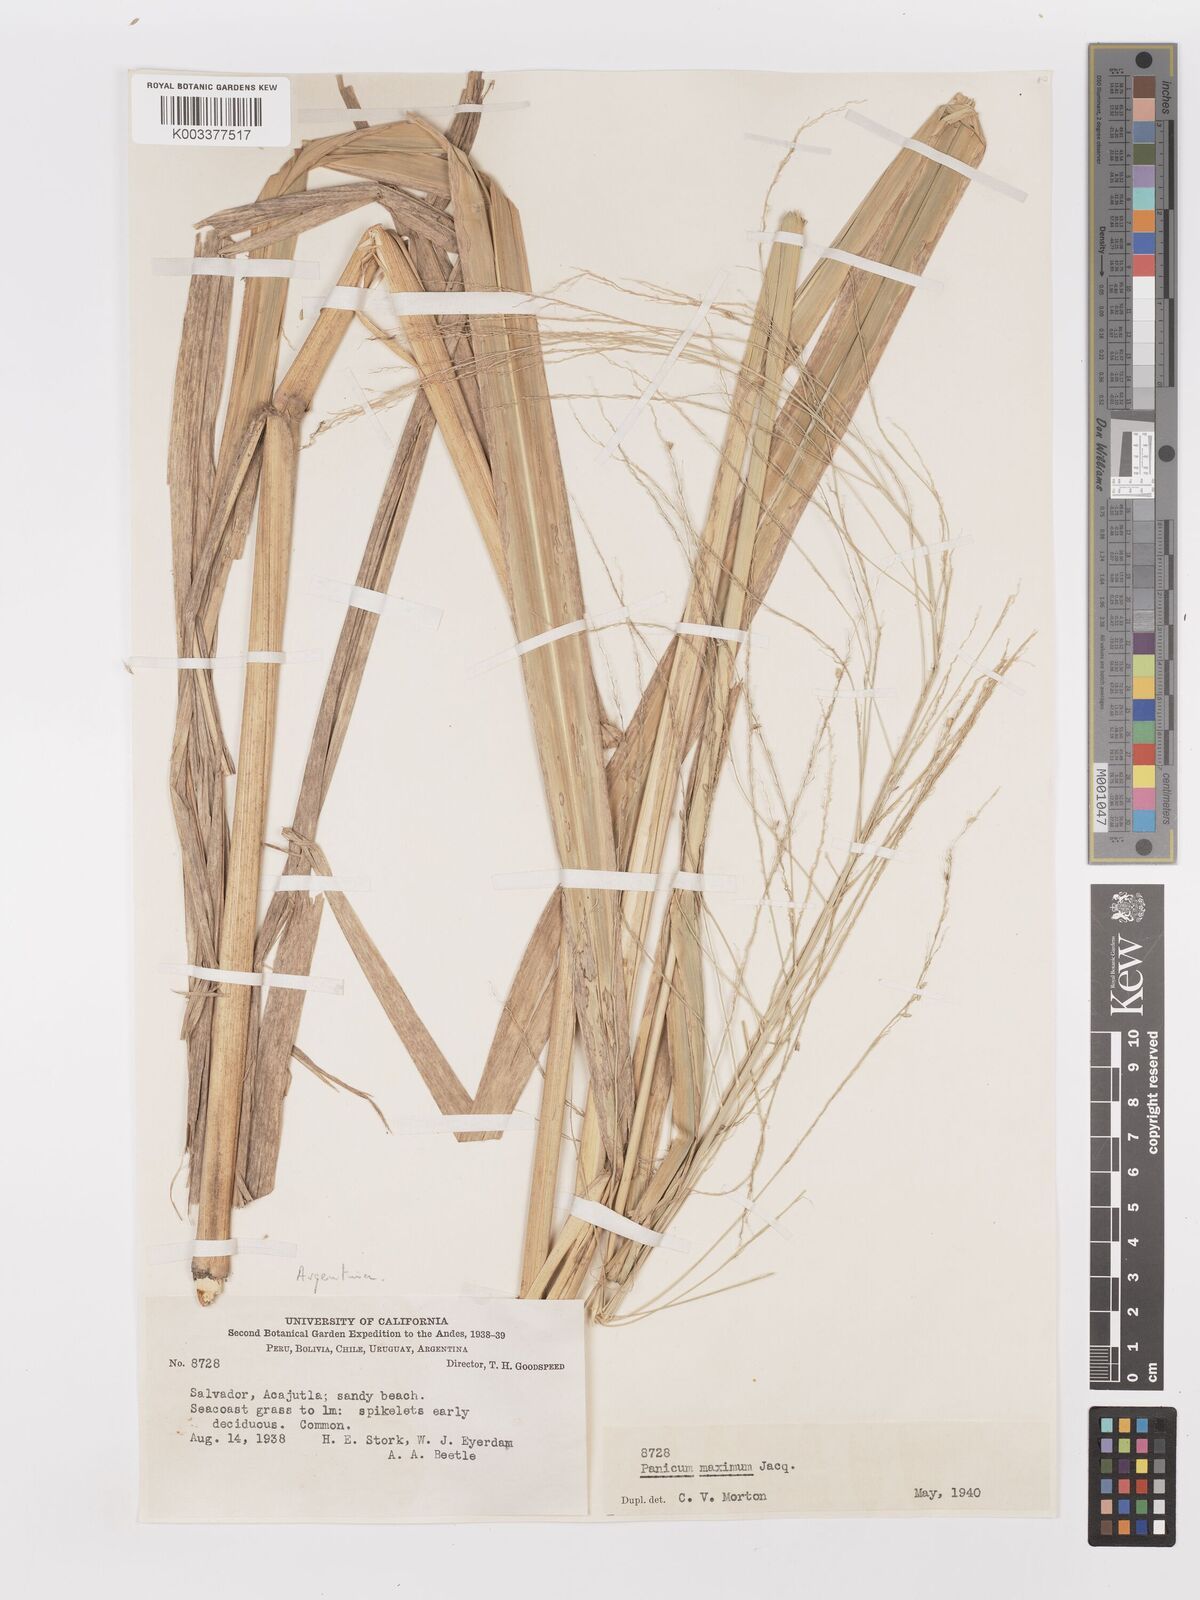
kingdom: Plantae
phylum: Tracheophyta
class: Liliopsida
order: Poales
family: Poaceae
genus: Megathyrsus
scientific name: Megathyrsus maximus
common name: Guineagrass
